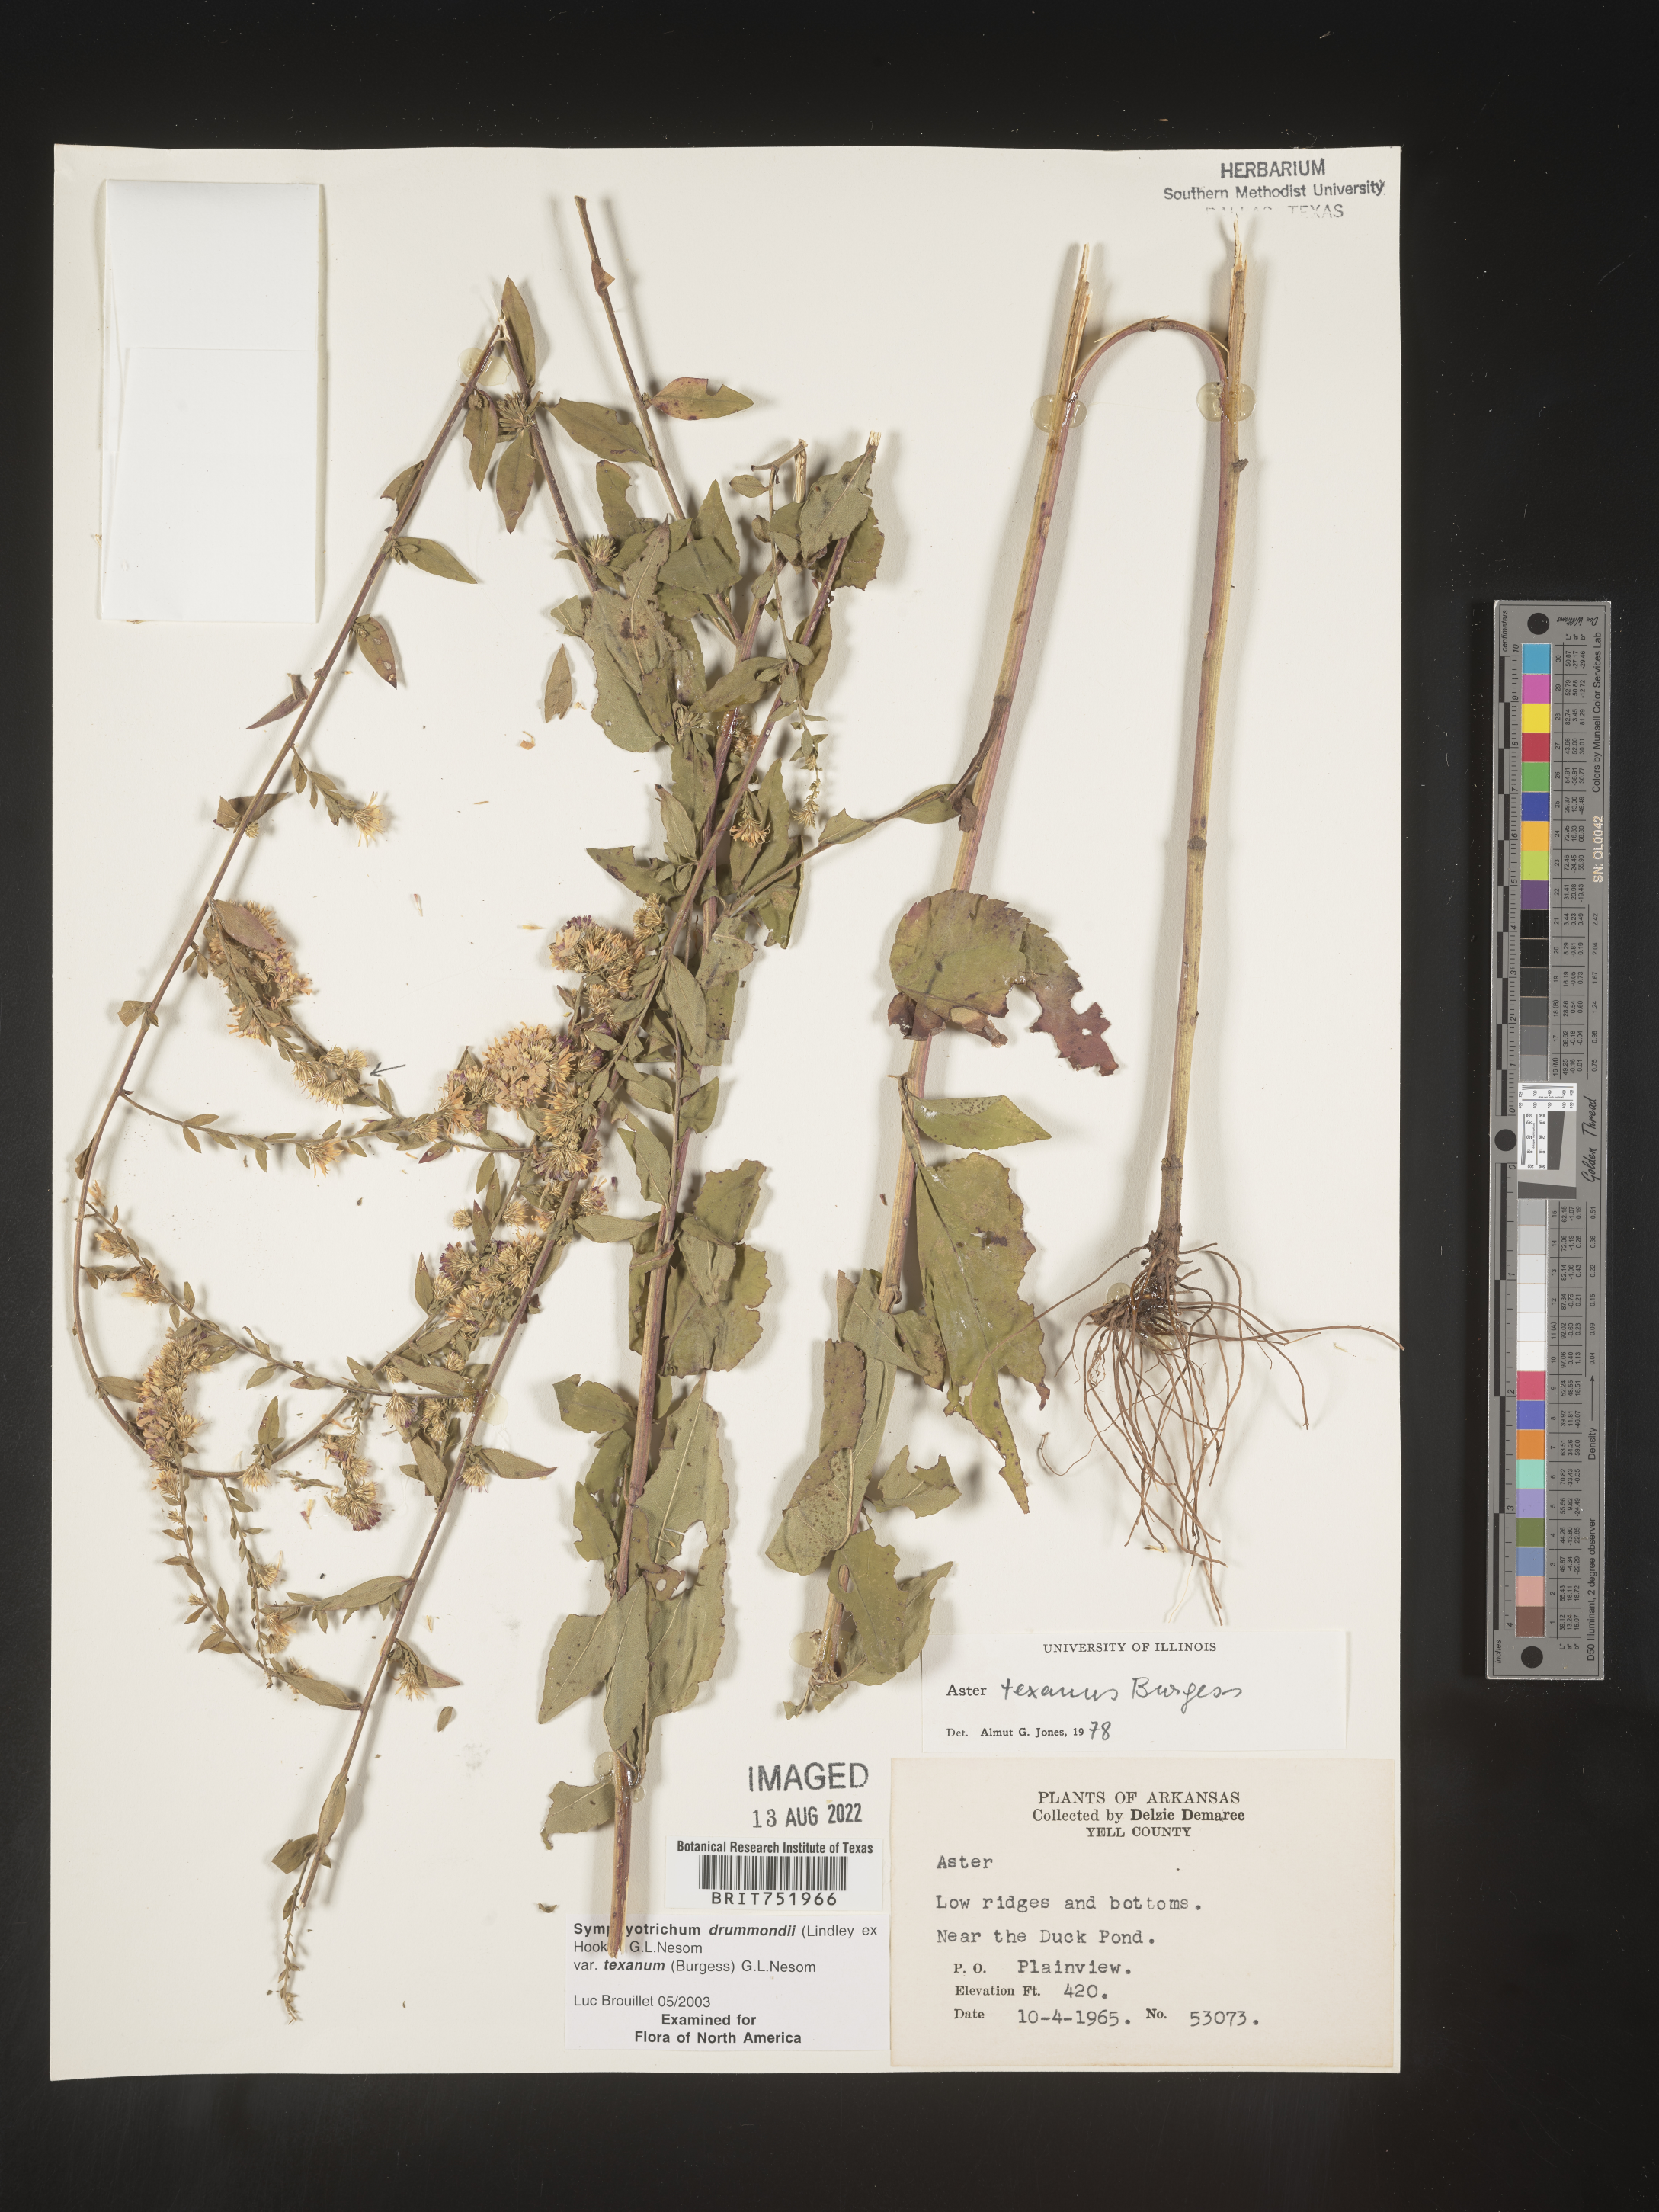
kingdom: Plantae
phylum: Tracheophyta
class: Magnoliopsida
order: Asterales
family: Asteraceae
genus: Symphyotrichum
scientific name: Symphyotrichum drummondii
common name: Drummond's aster
